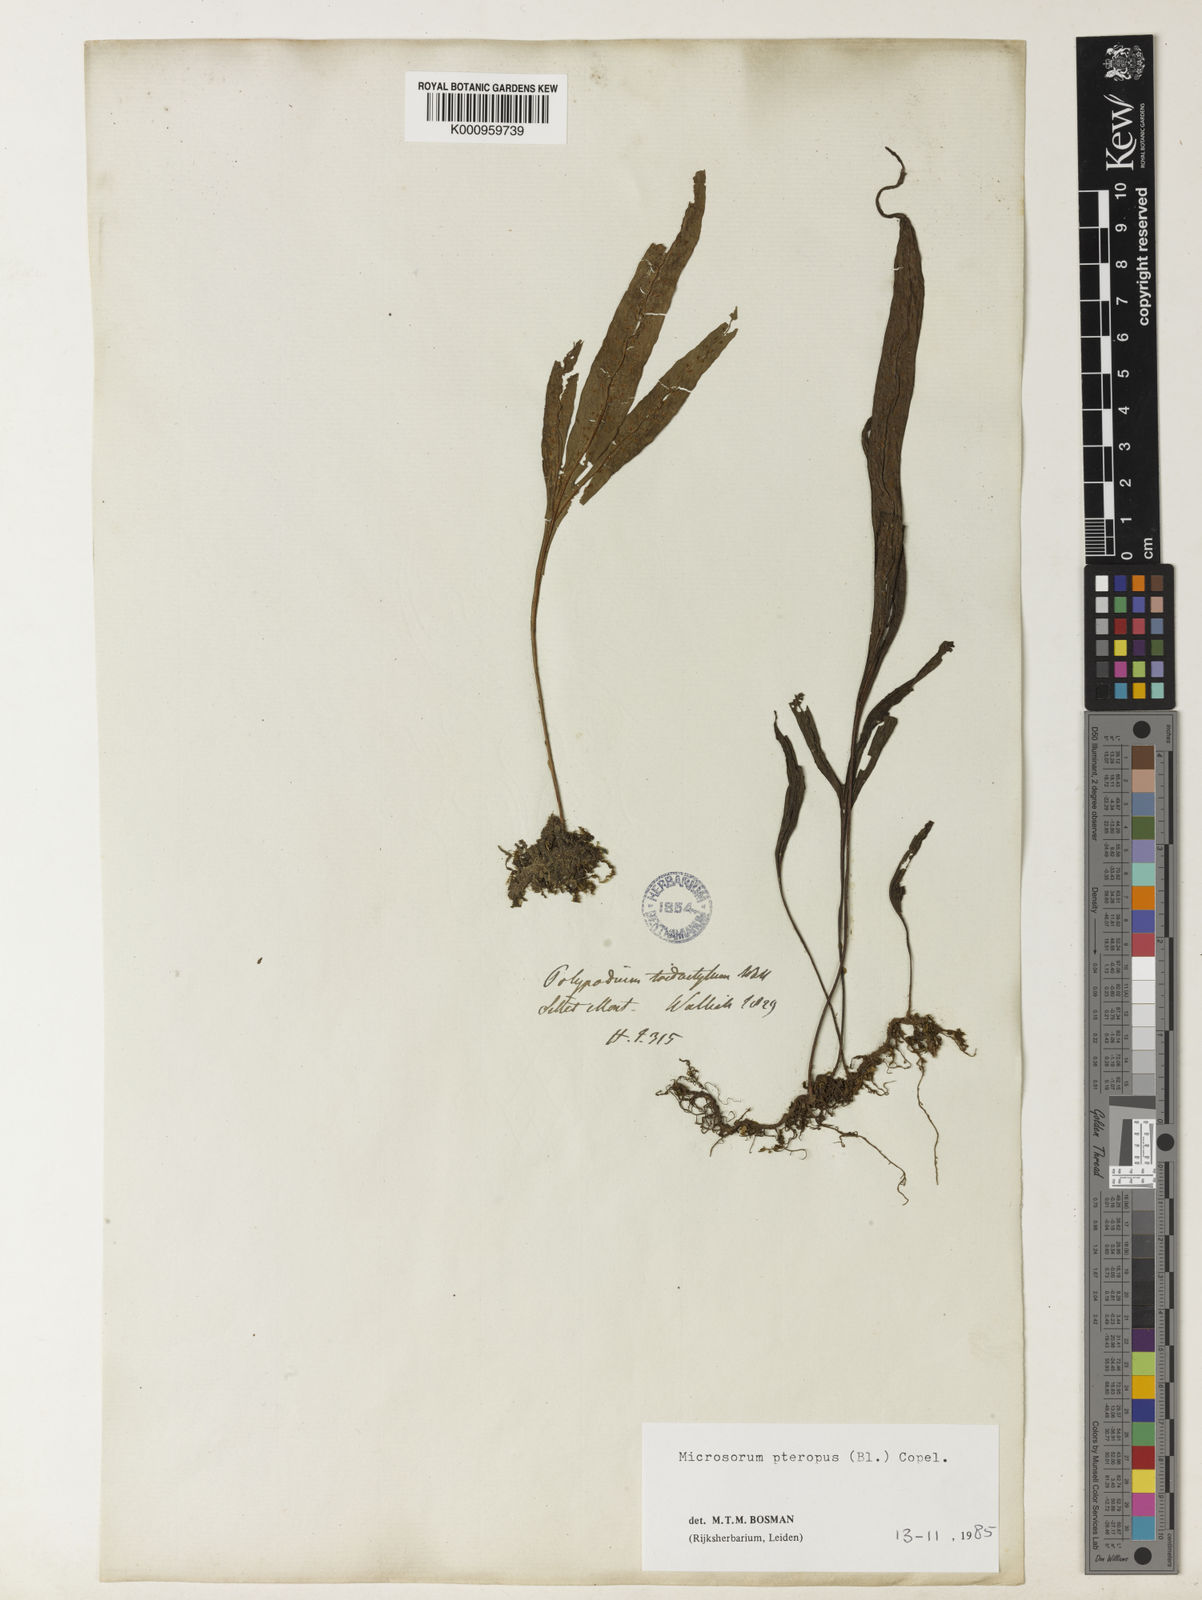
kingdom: Plantae
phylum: Tracheophyta
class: Polypodiopsida
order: Polypodiales
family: Polypodiaceae
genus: Leptochilus
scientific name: Leptochilus pteropus
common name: Java fern
